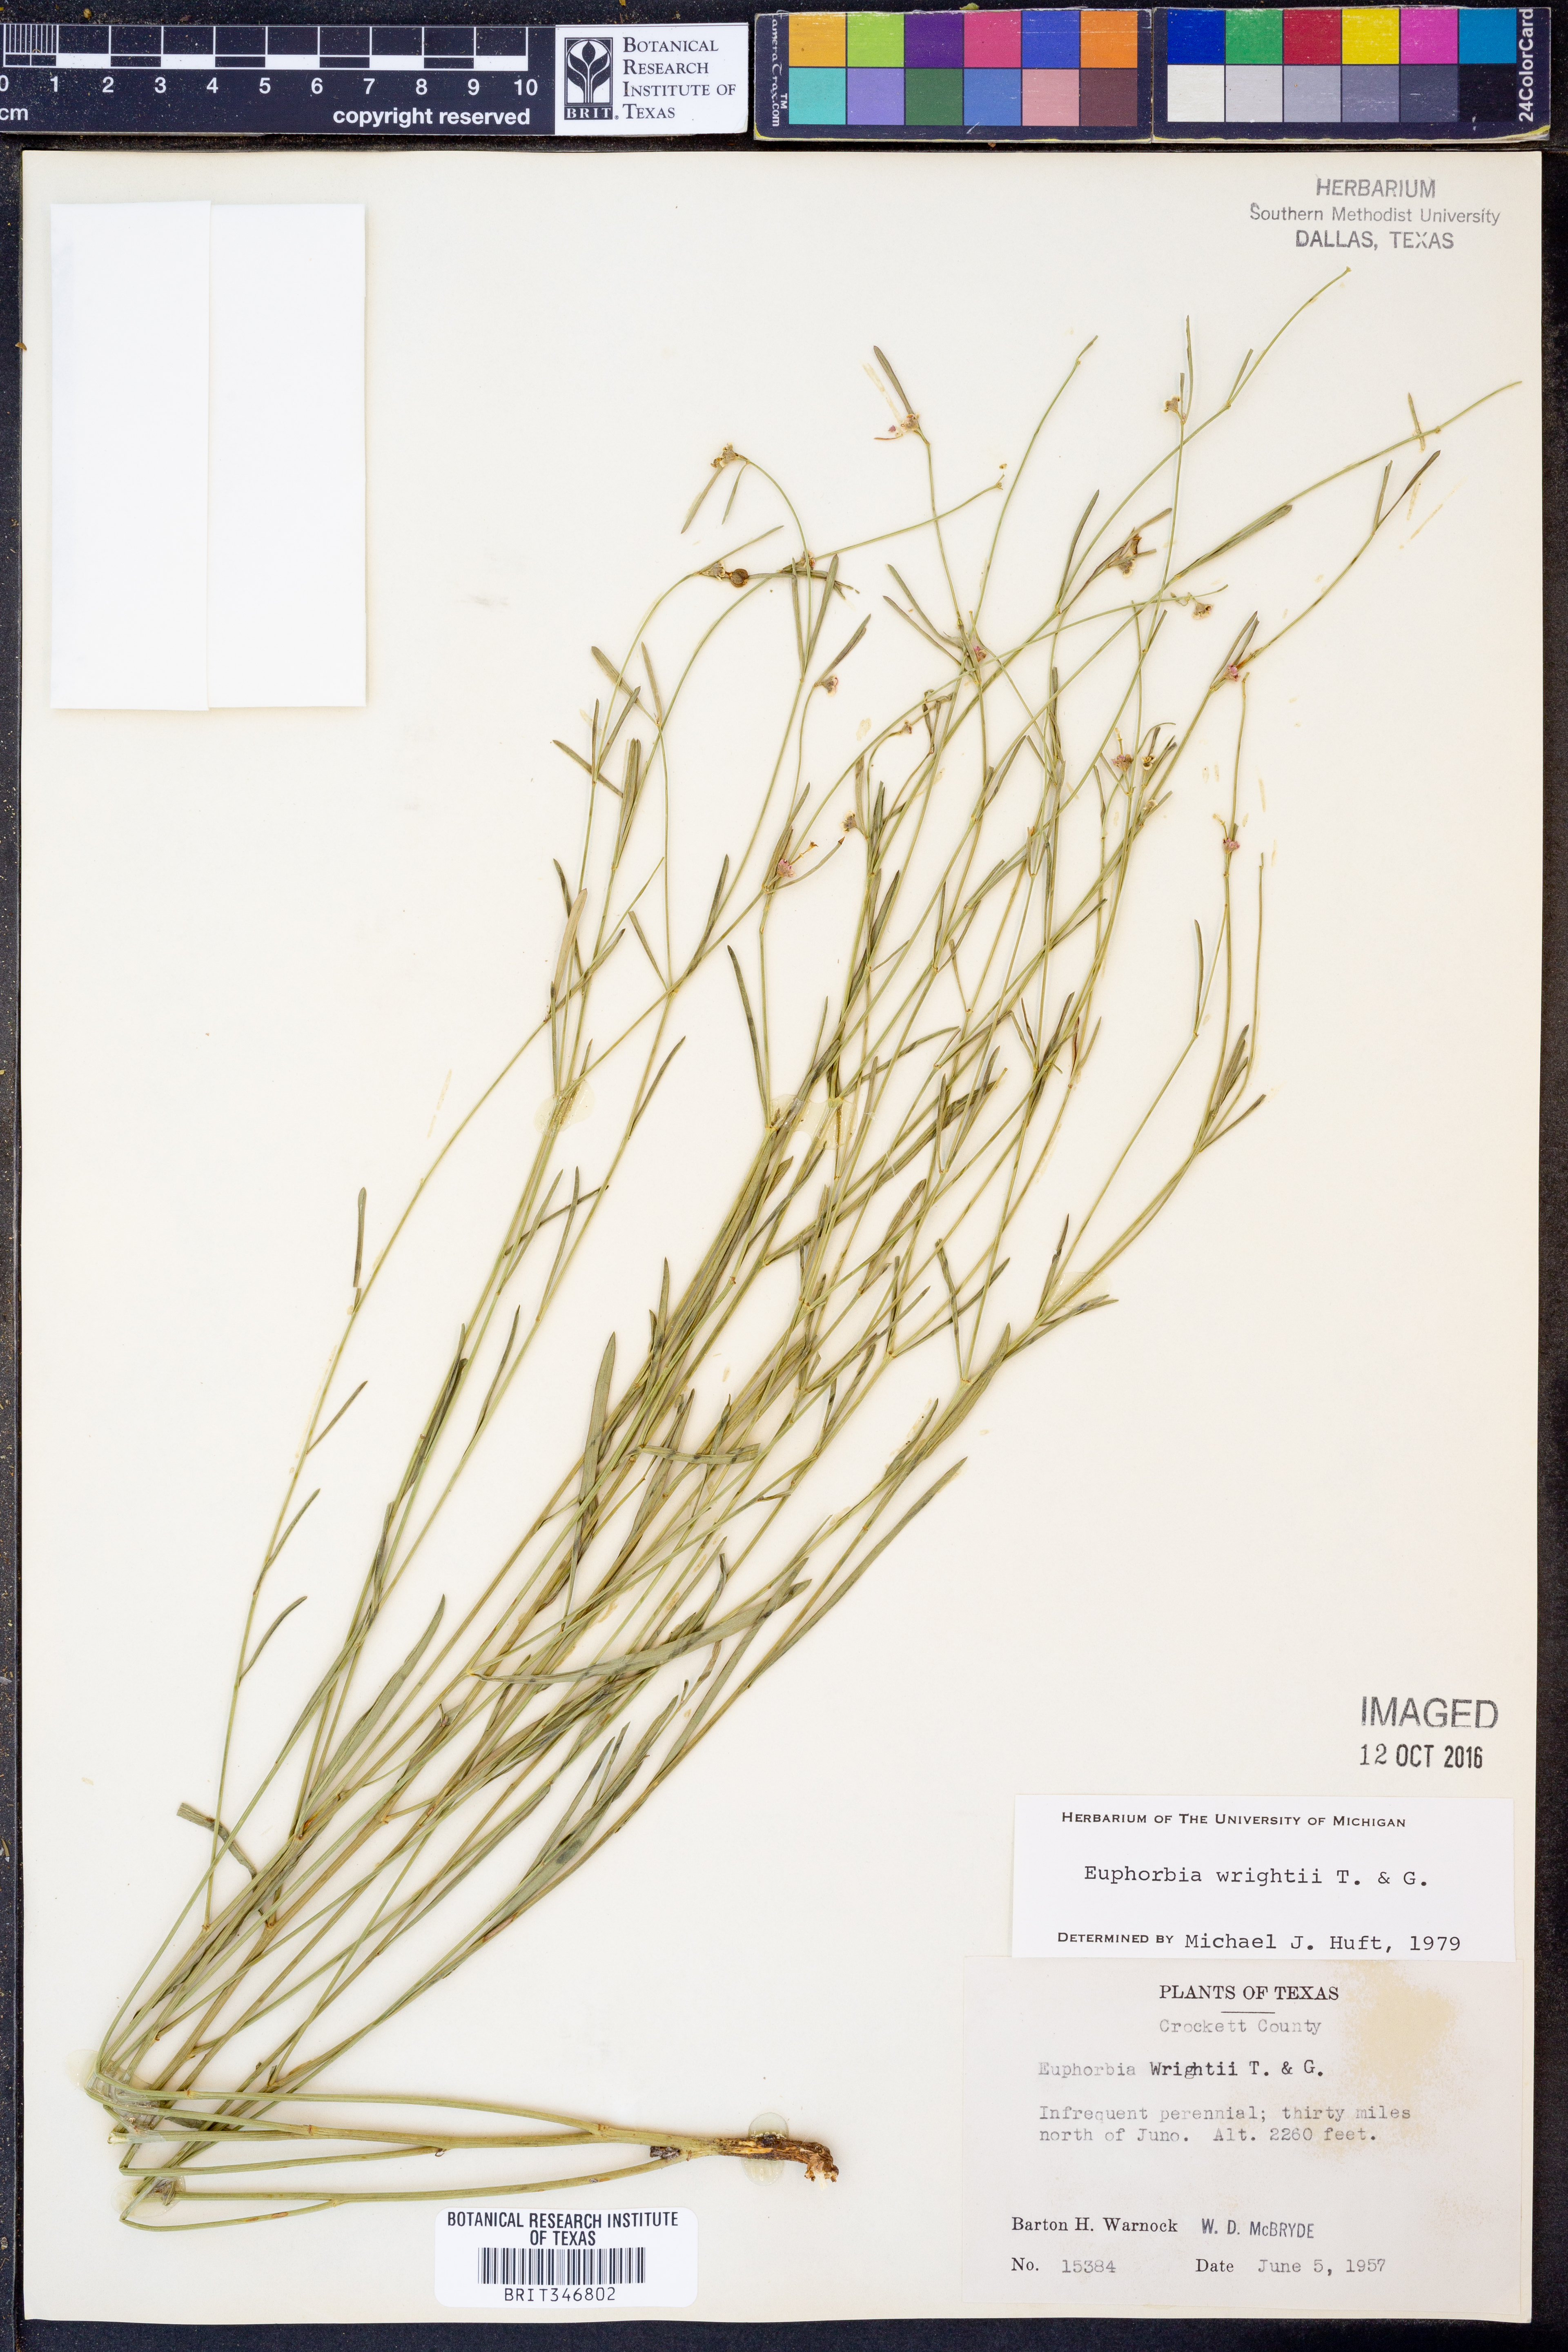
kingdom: Plantae
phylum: Tracheophyta
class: Magnoliopsida
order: Malpighiales
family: Euphorbiaceae
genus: Euphorbia
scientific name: Euphorbia wrightii
